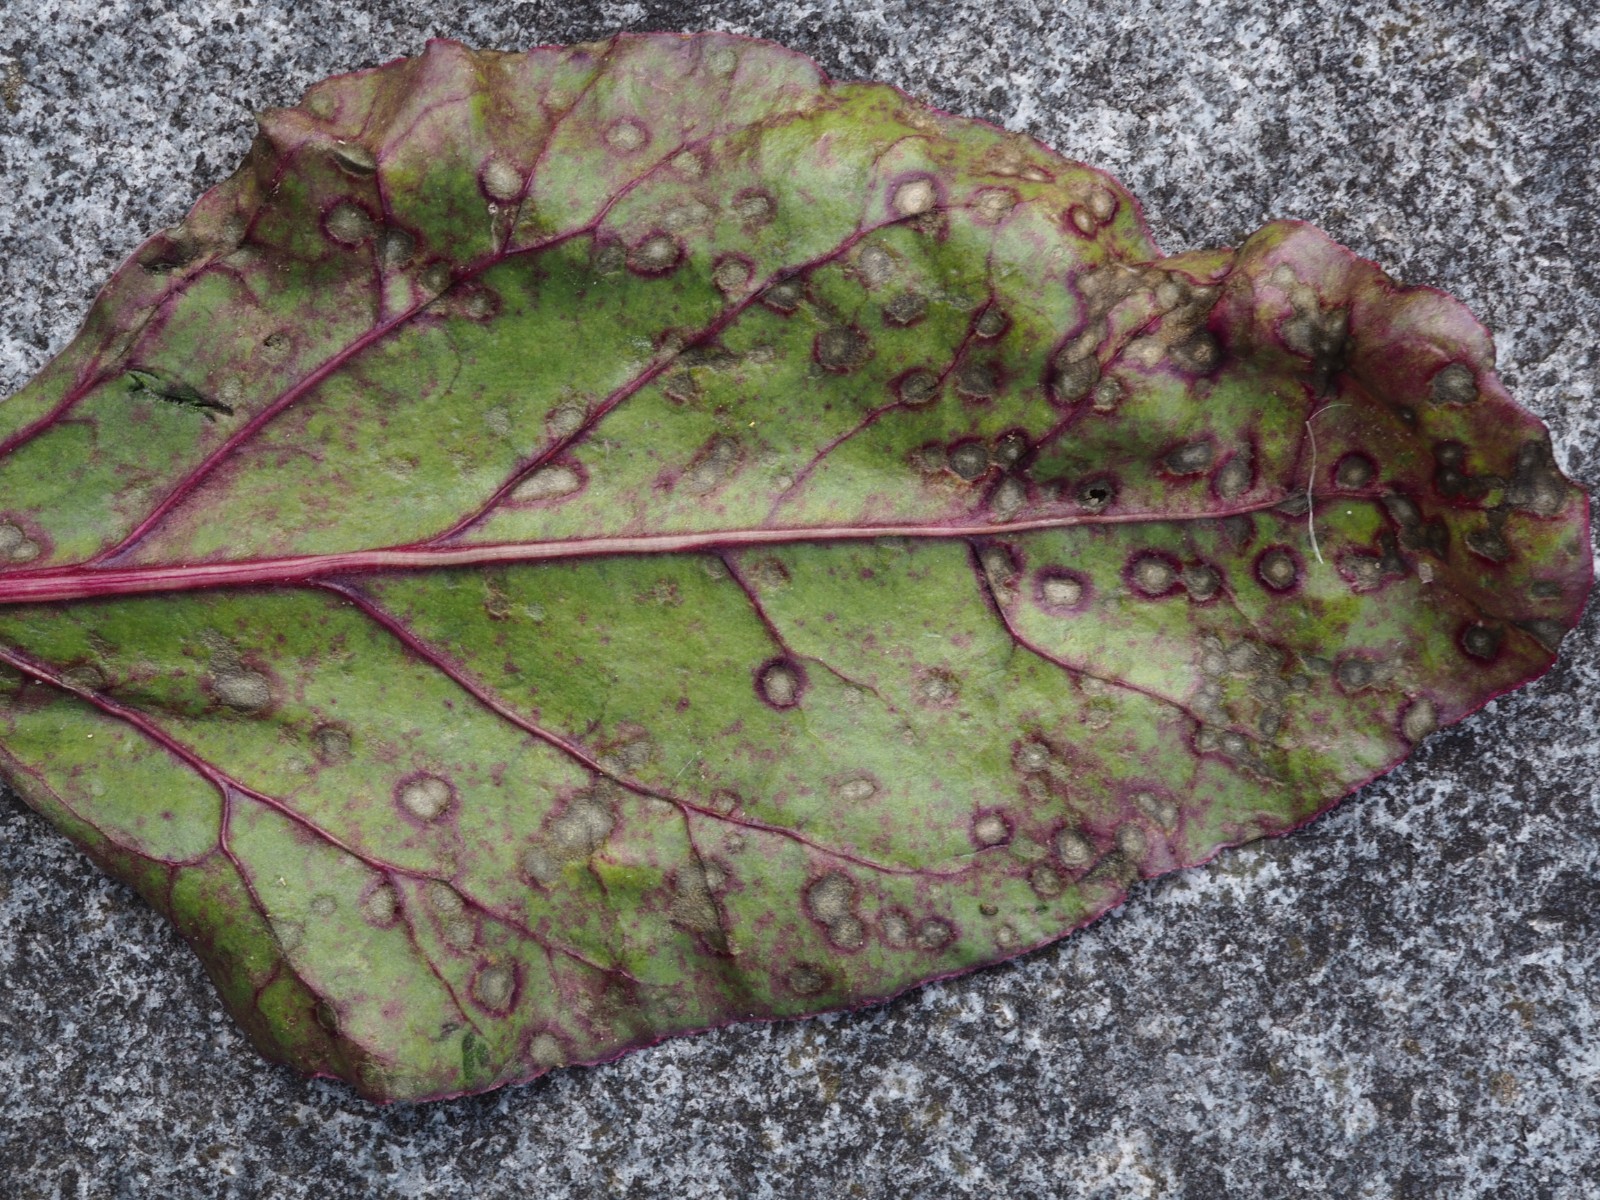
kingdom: Fungi
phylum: Ascomycota
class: Dothideomycetes
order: Mycosphaerellales
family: Mycosphaerellaceae
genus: Cercospora
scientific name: Cercospora beticola
